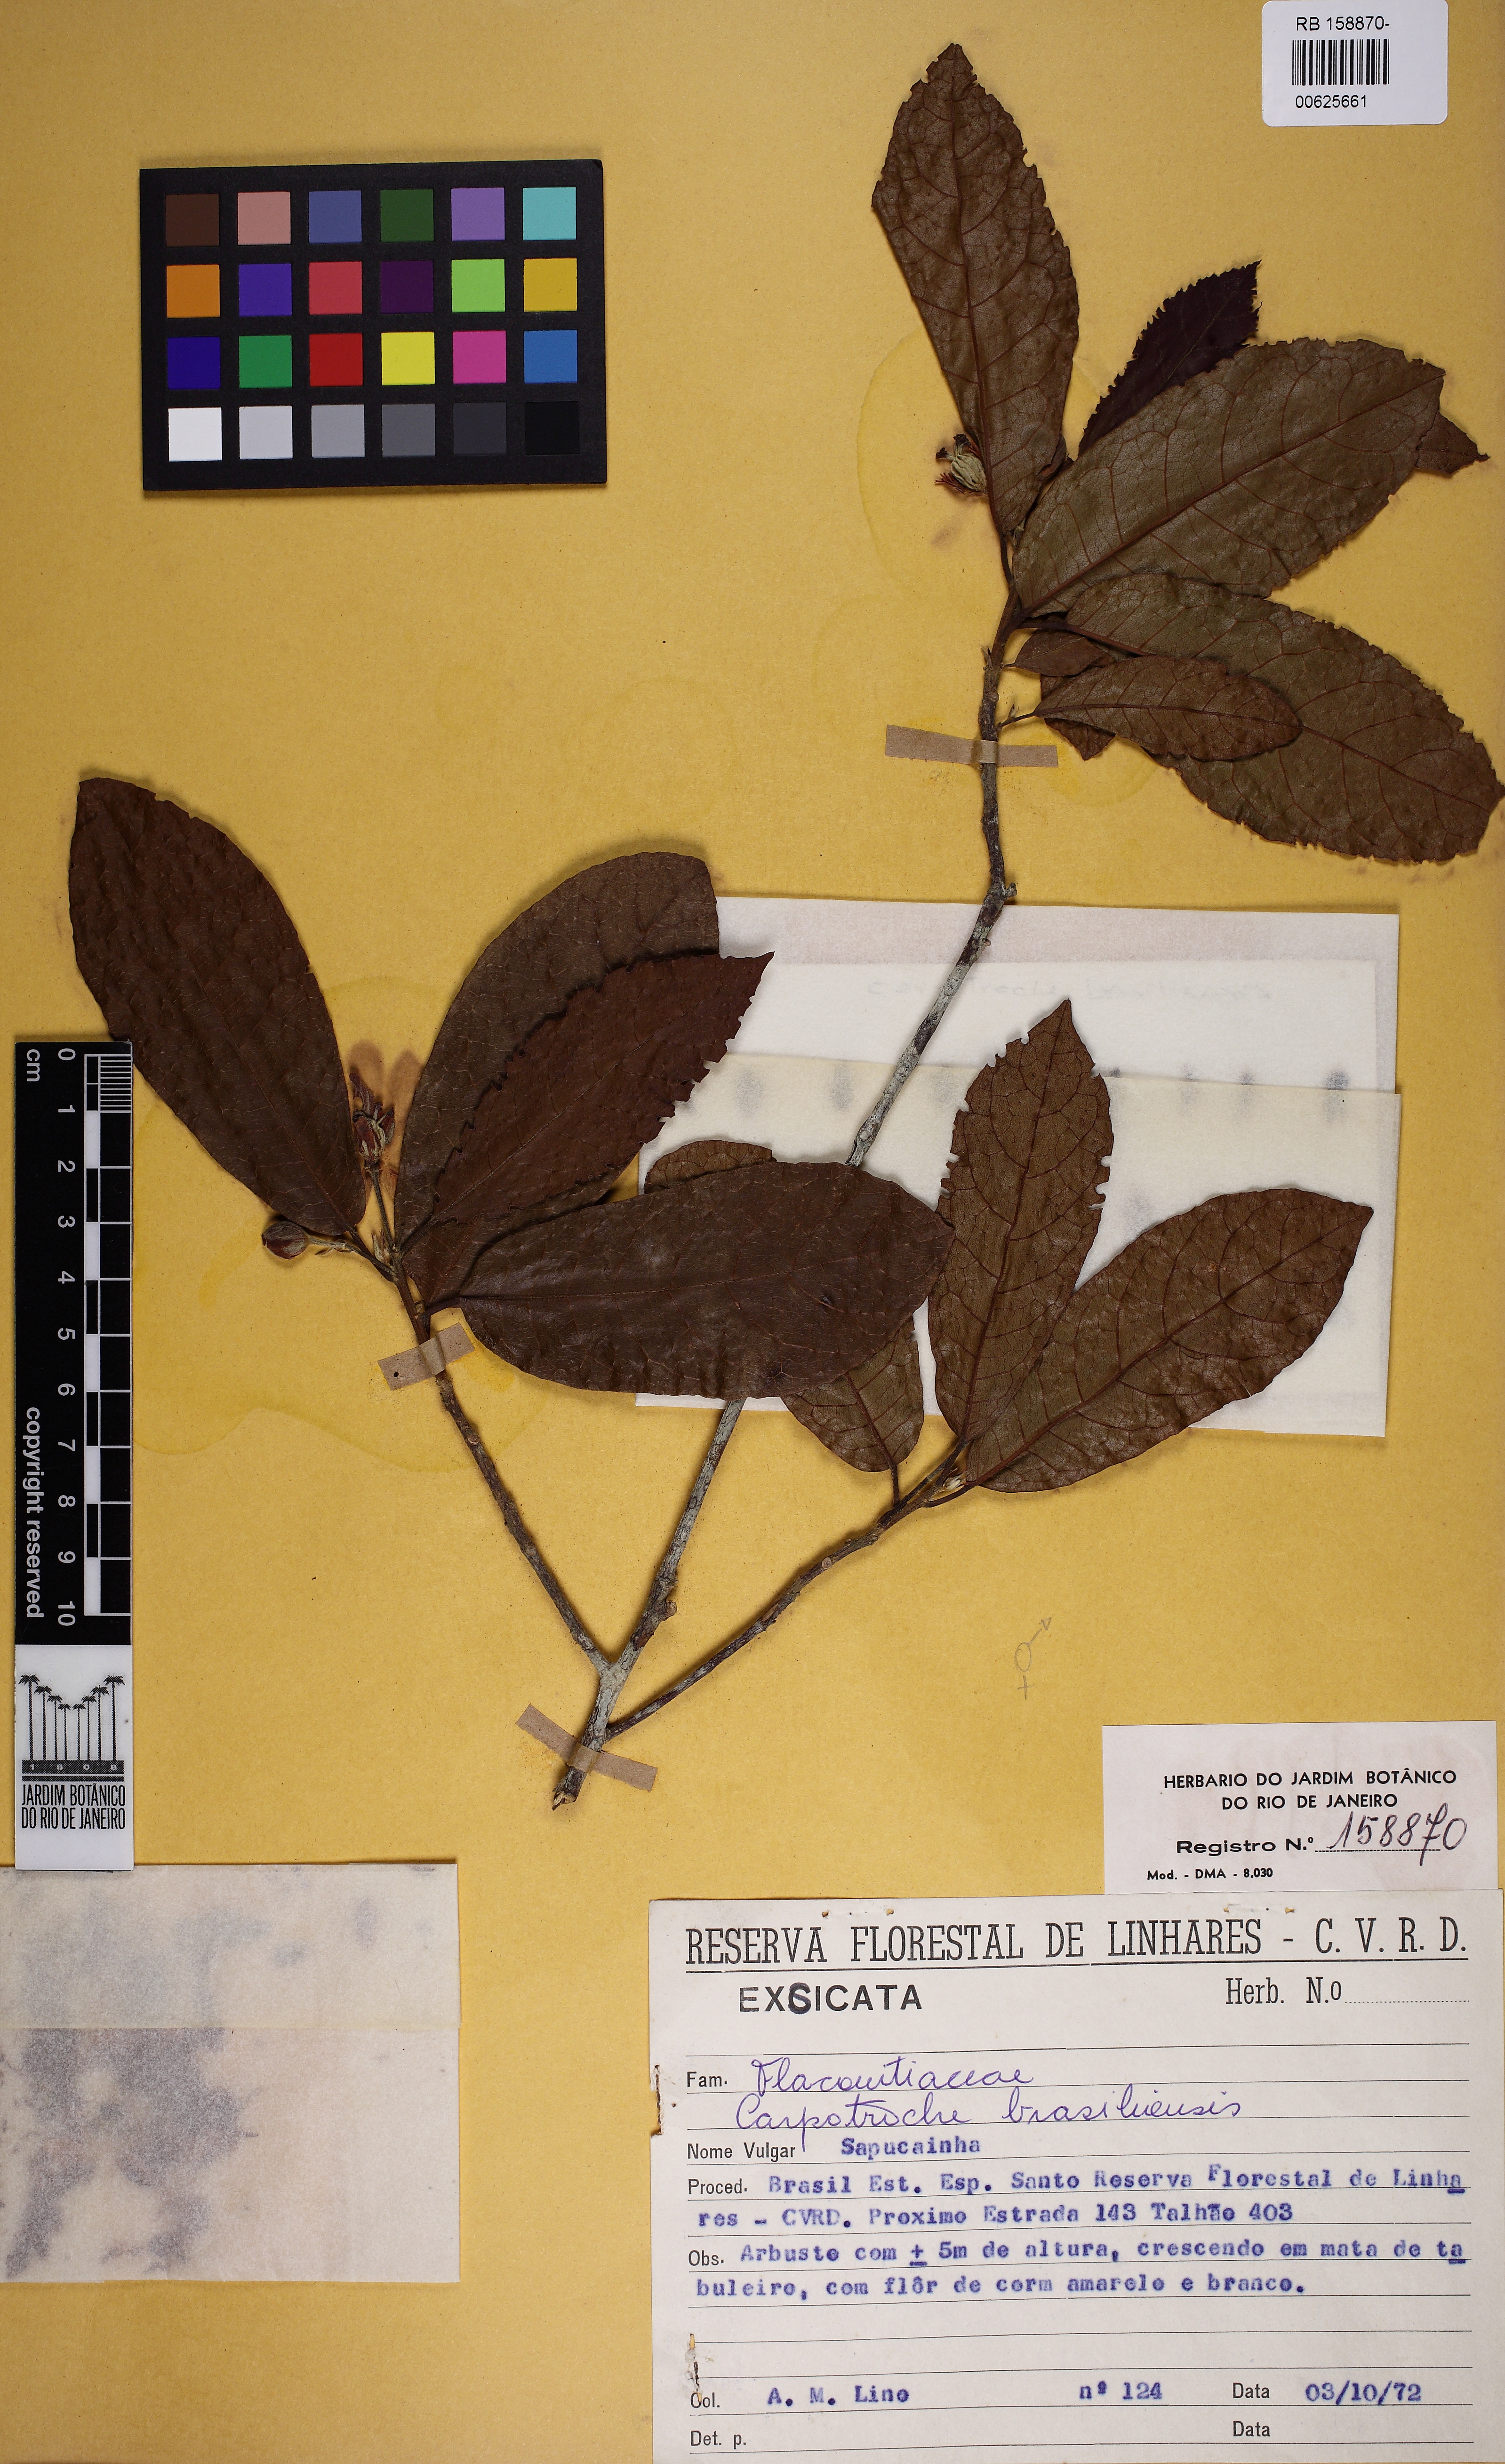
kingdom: Plantae
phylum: Tracheophyta
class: Magnoliopsida
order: Malpighiales
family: Achariaceae
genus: Carpotroche
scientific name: Carpotroche brasiliensis
